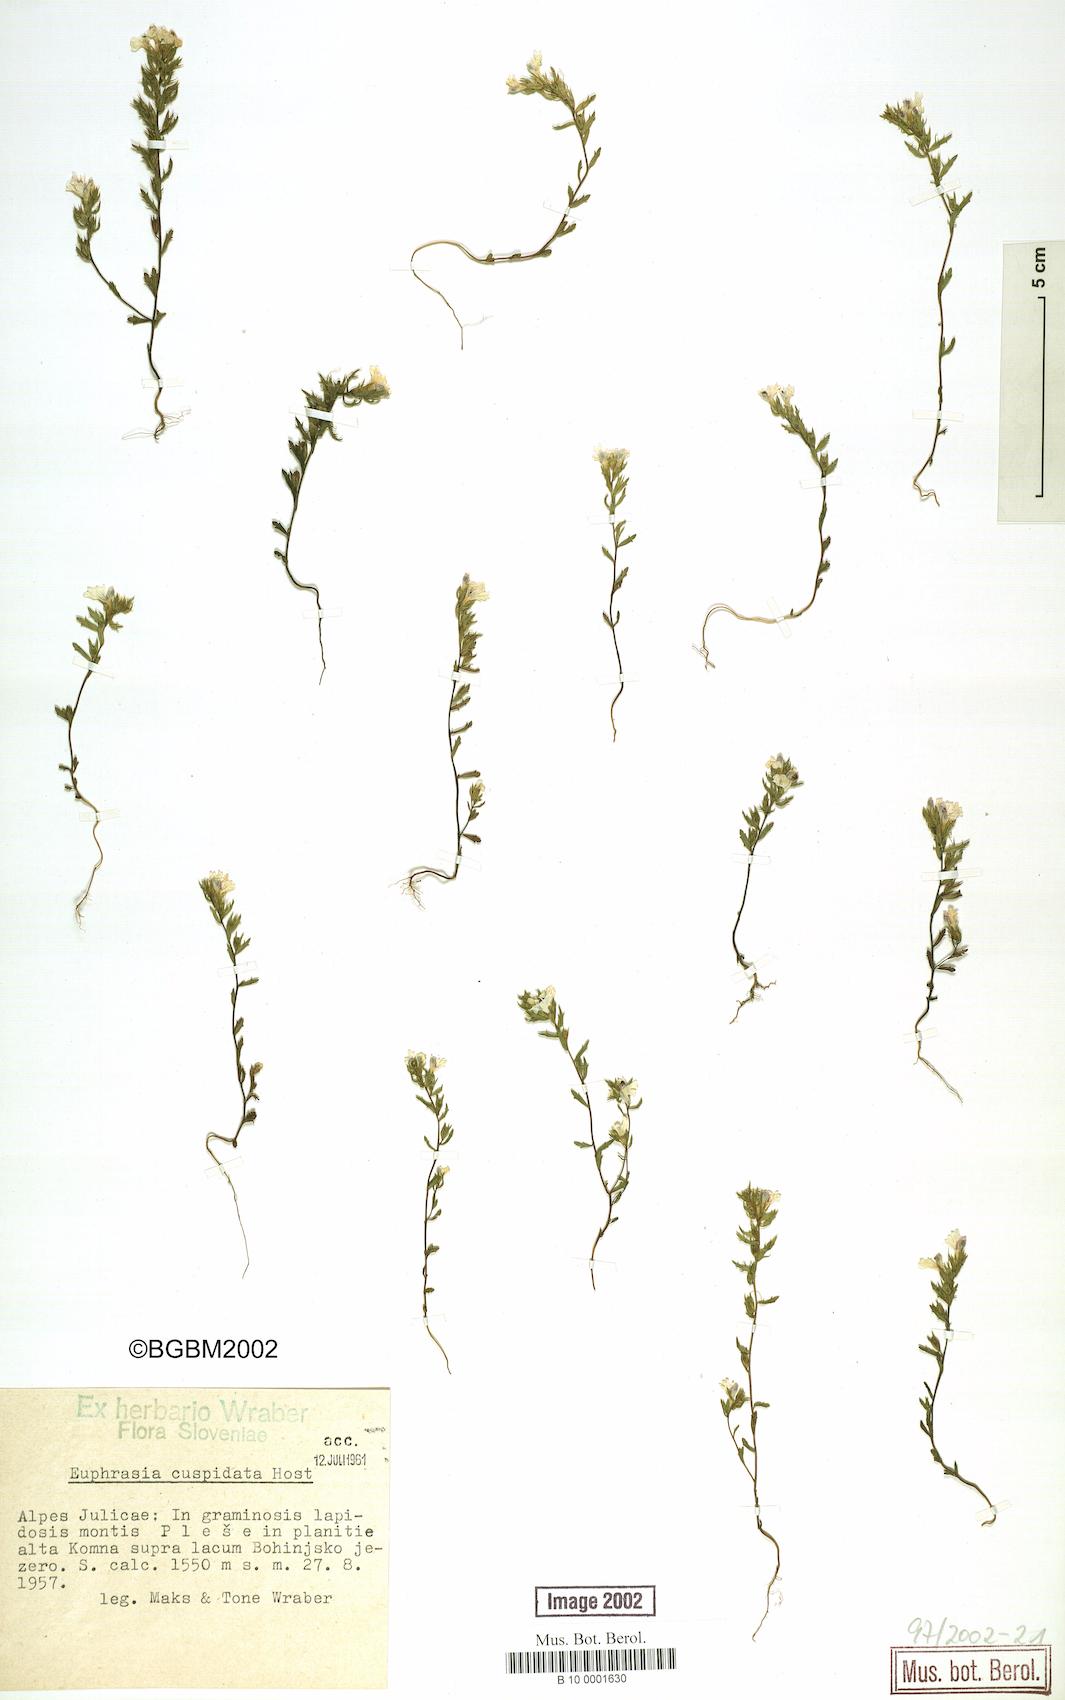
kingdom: Plantae
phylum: Tracheophyta
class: Magnoliopsida
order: Lamiales
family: Orobanchaceae
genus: Euphrasia
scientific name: Euphrasia cuspidata
